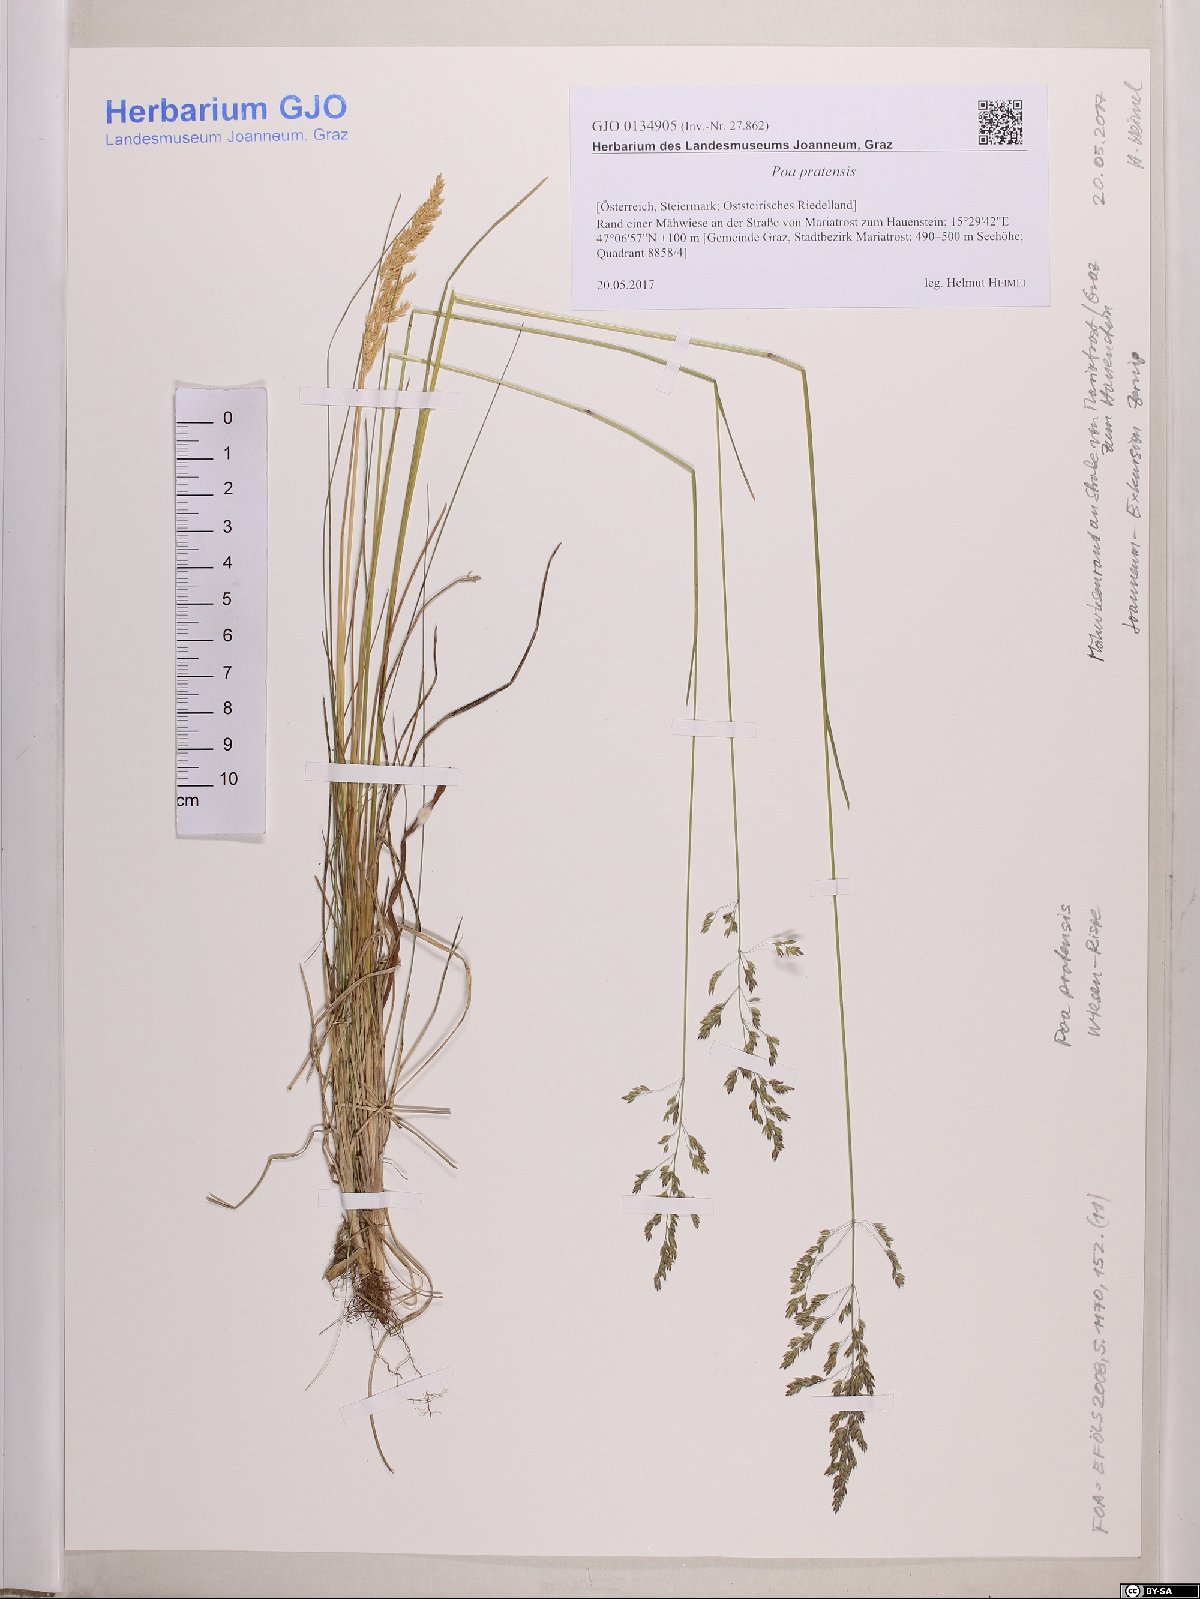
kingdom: Plantae
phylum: Tracheophyta
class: Liliopsida
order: Poales
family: Poaceae
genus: Poa
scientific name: Poa pratensis
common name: Kentucky bluegrass
